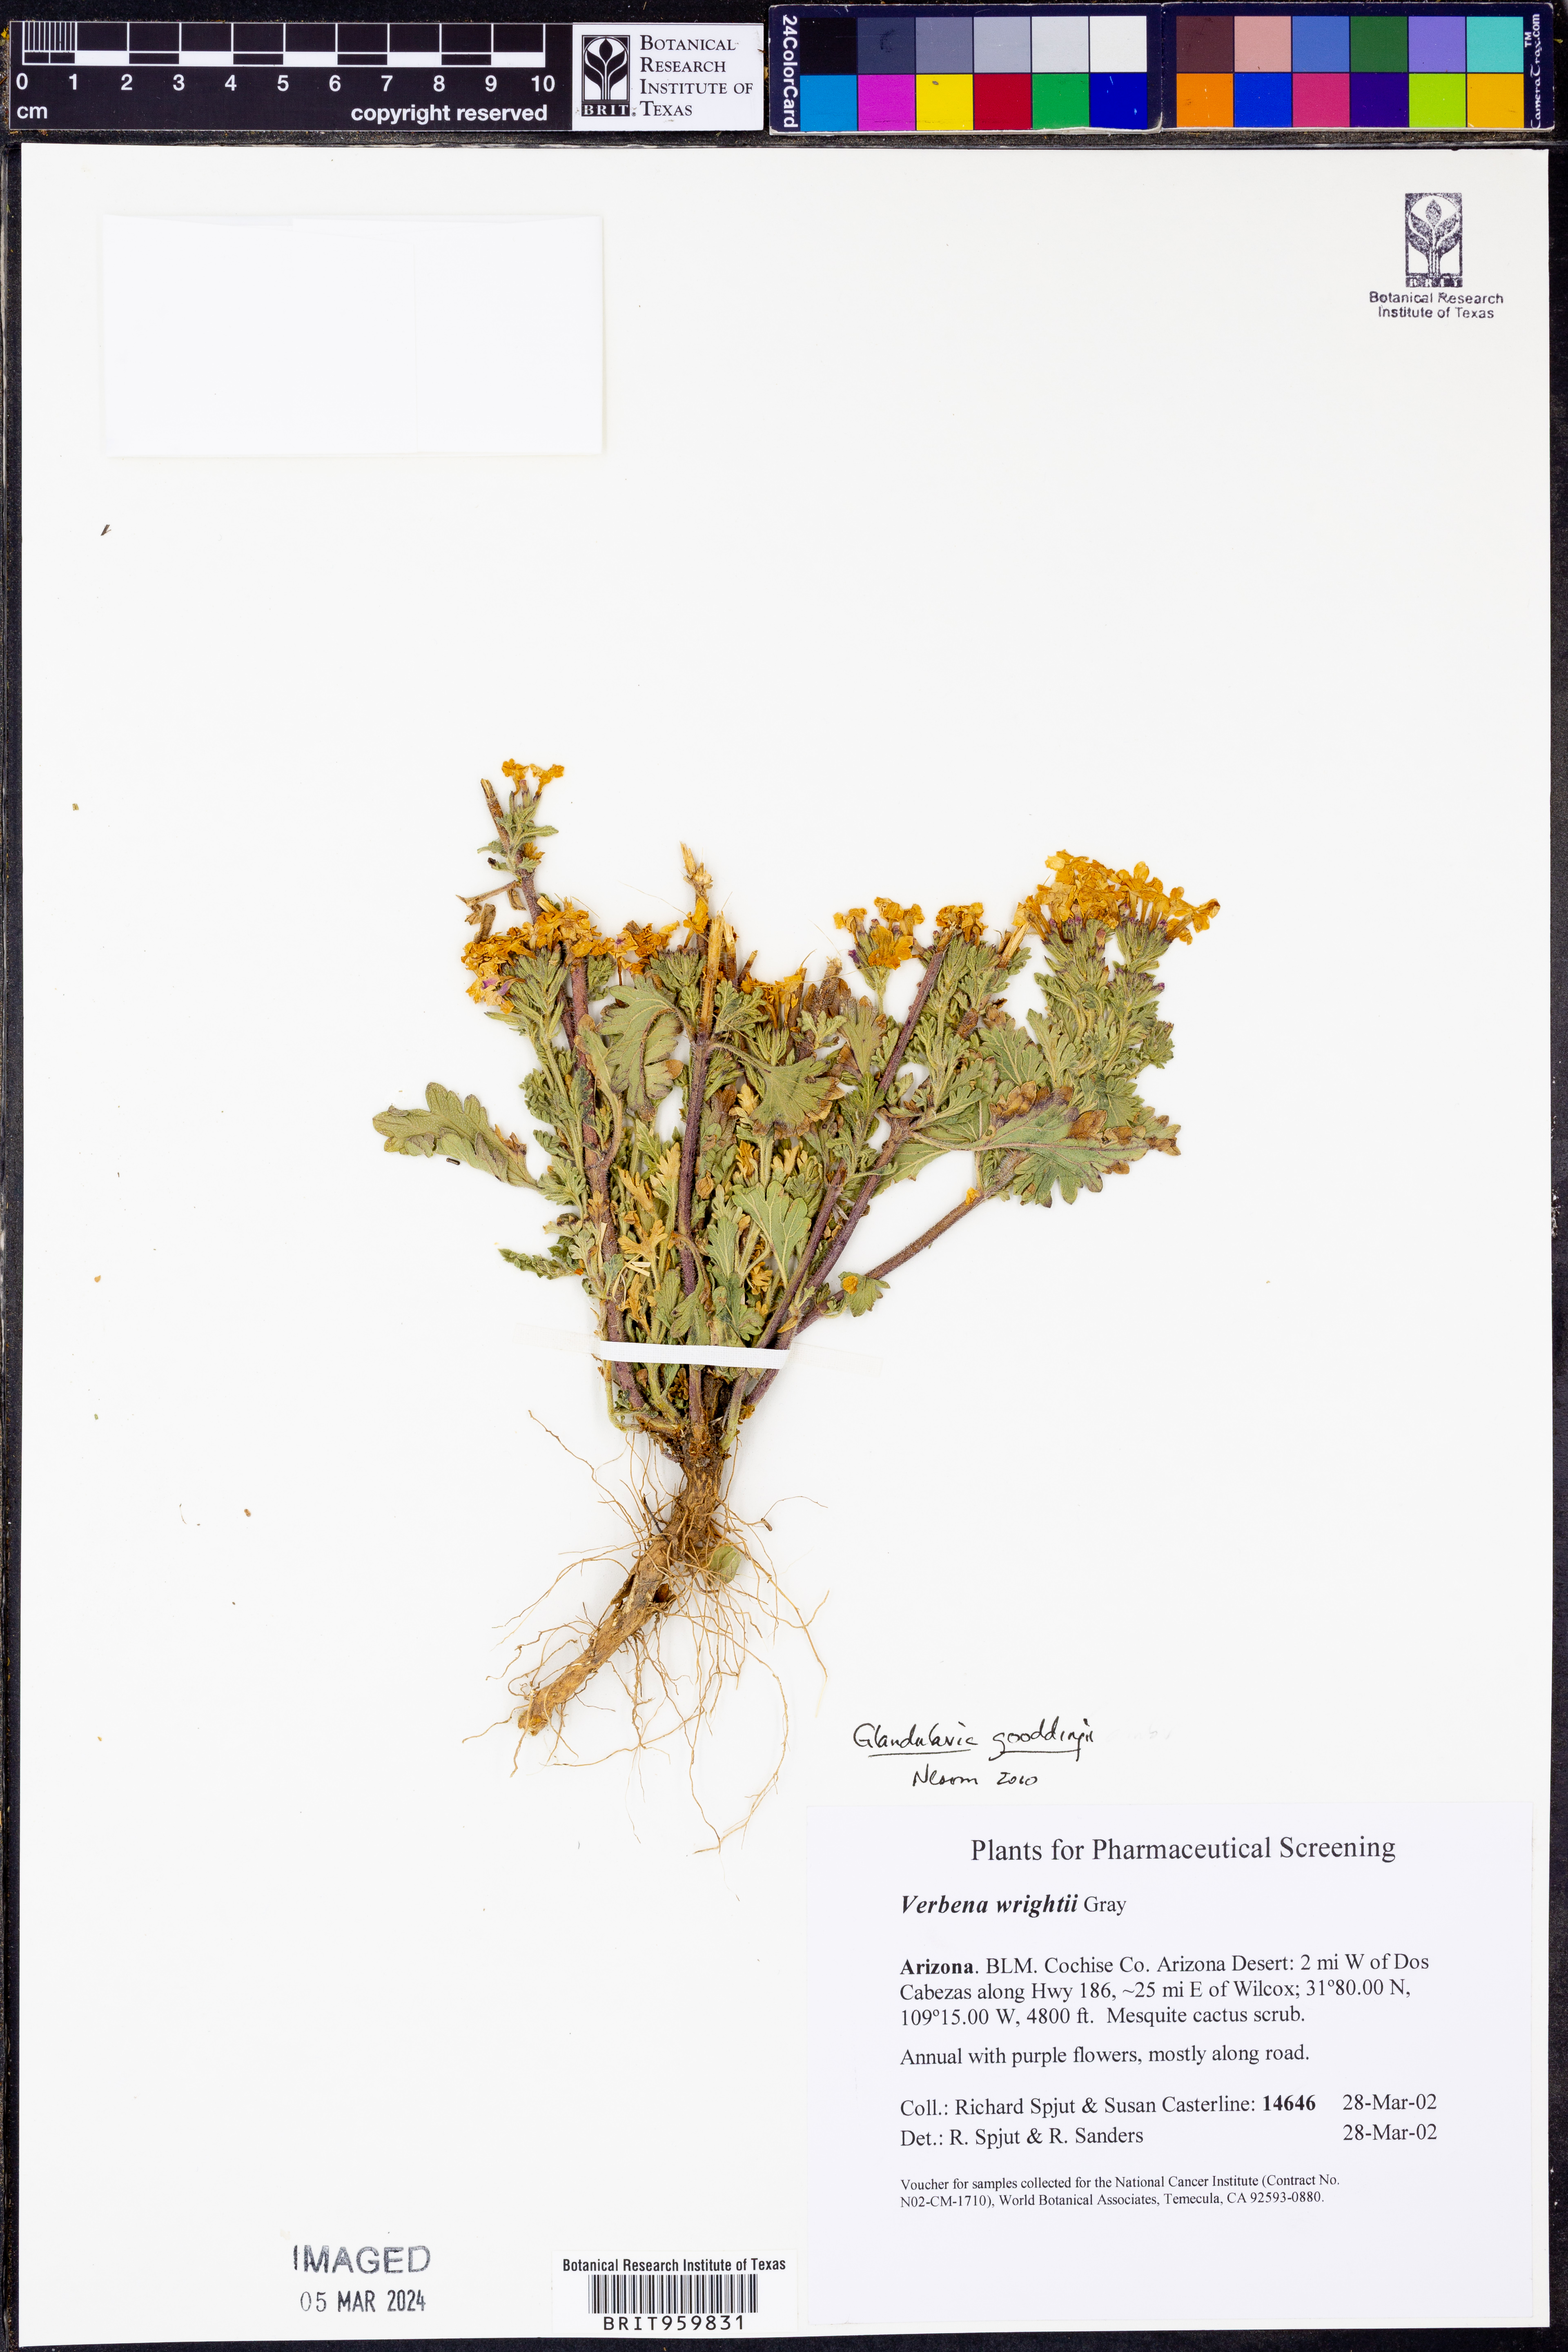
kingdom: Plantae
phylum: Tracheophyta
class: Magnoliopsida
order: Lamiales
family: Verbenaceae
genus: Verbena
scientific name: Verbena gooddingii
